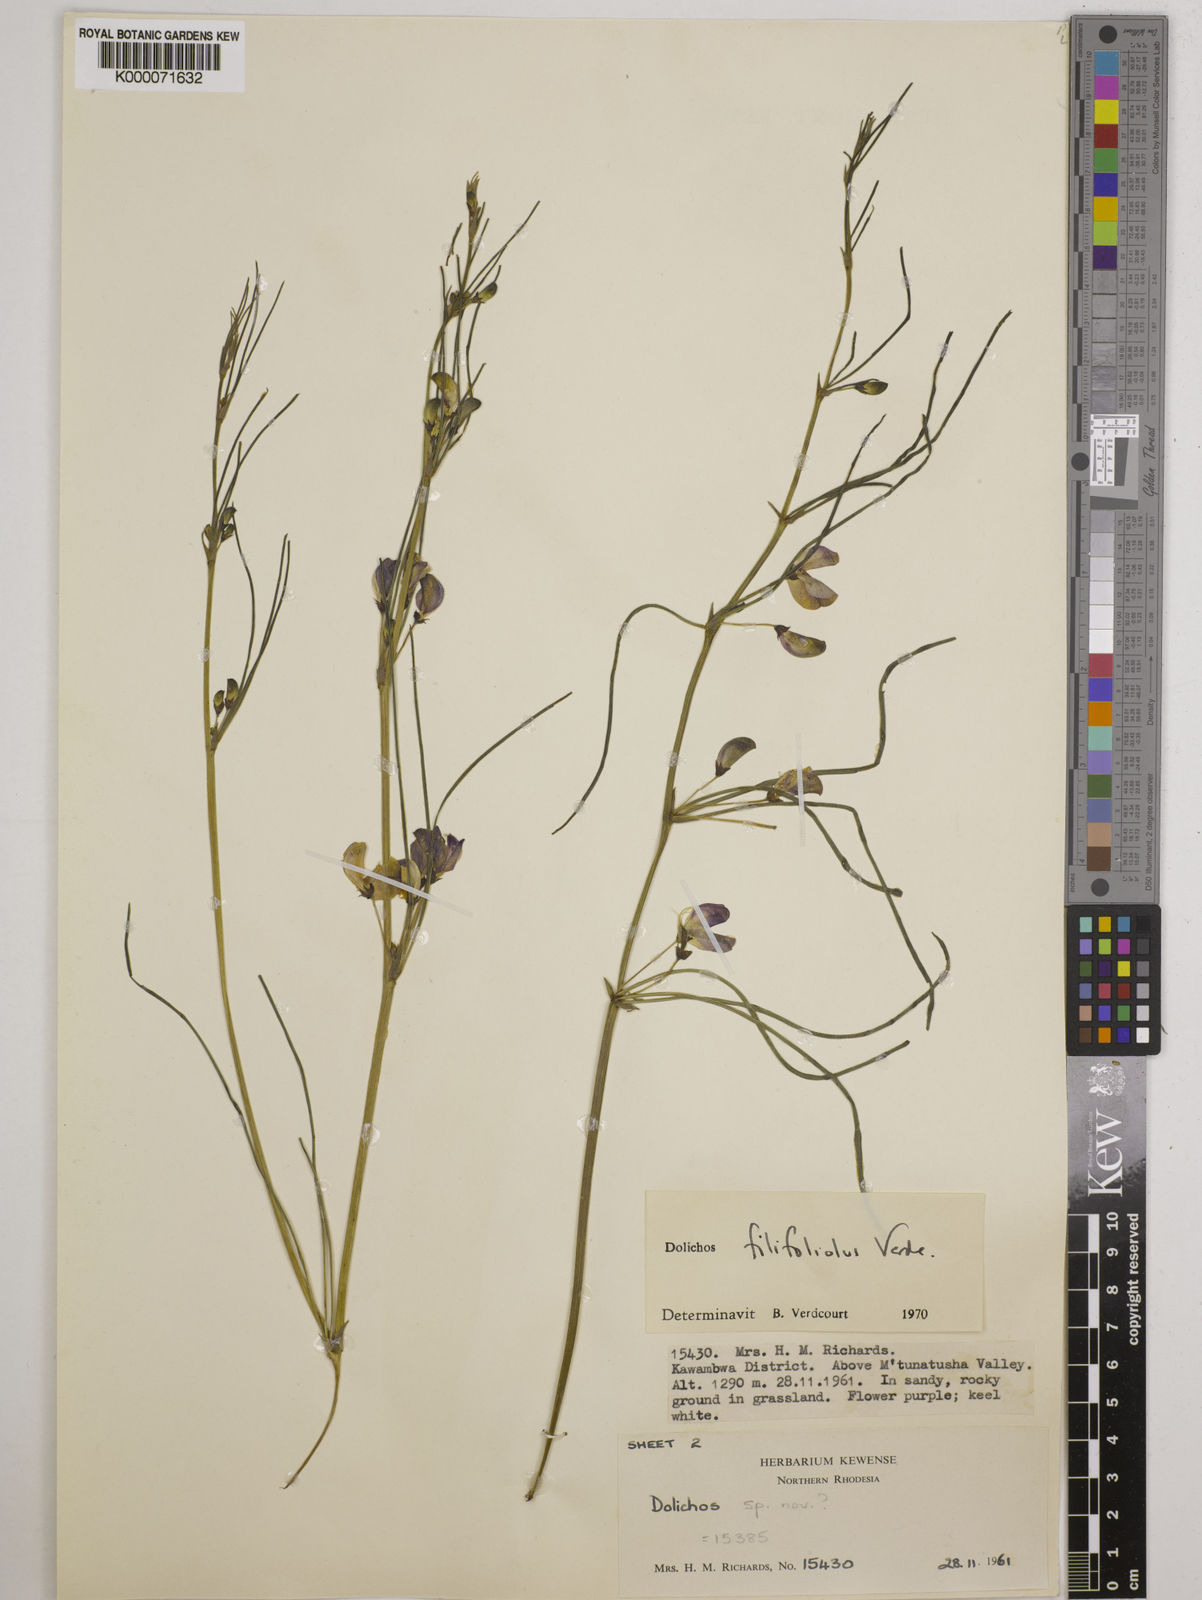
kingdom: Plantae
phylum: Tracheophyta
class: Magnoliopsida
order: Fabales
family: Fabaceae
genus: Dolichos
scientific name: Dolichos filifoliolus
